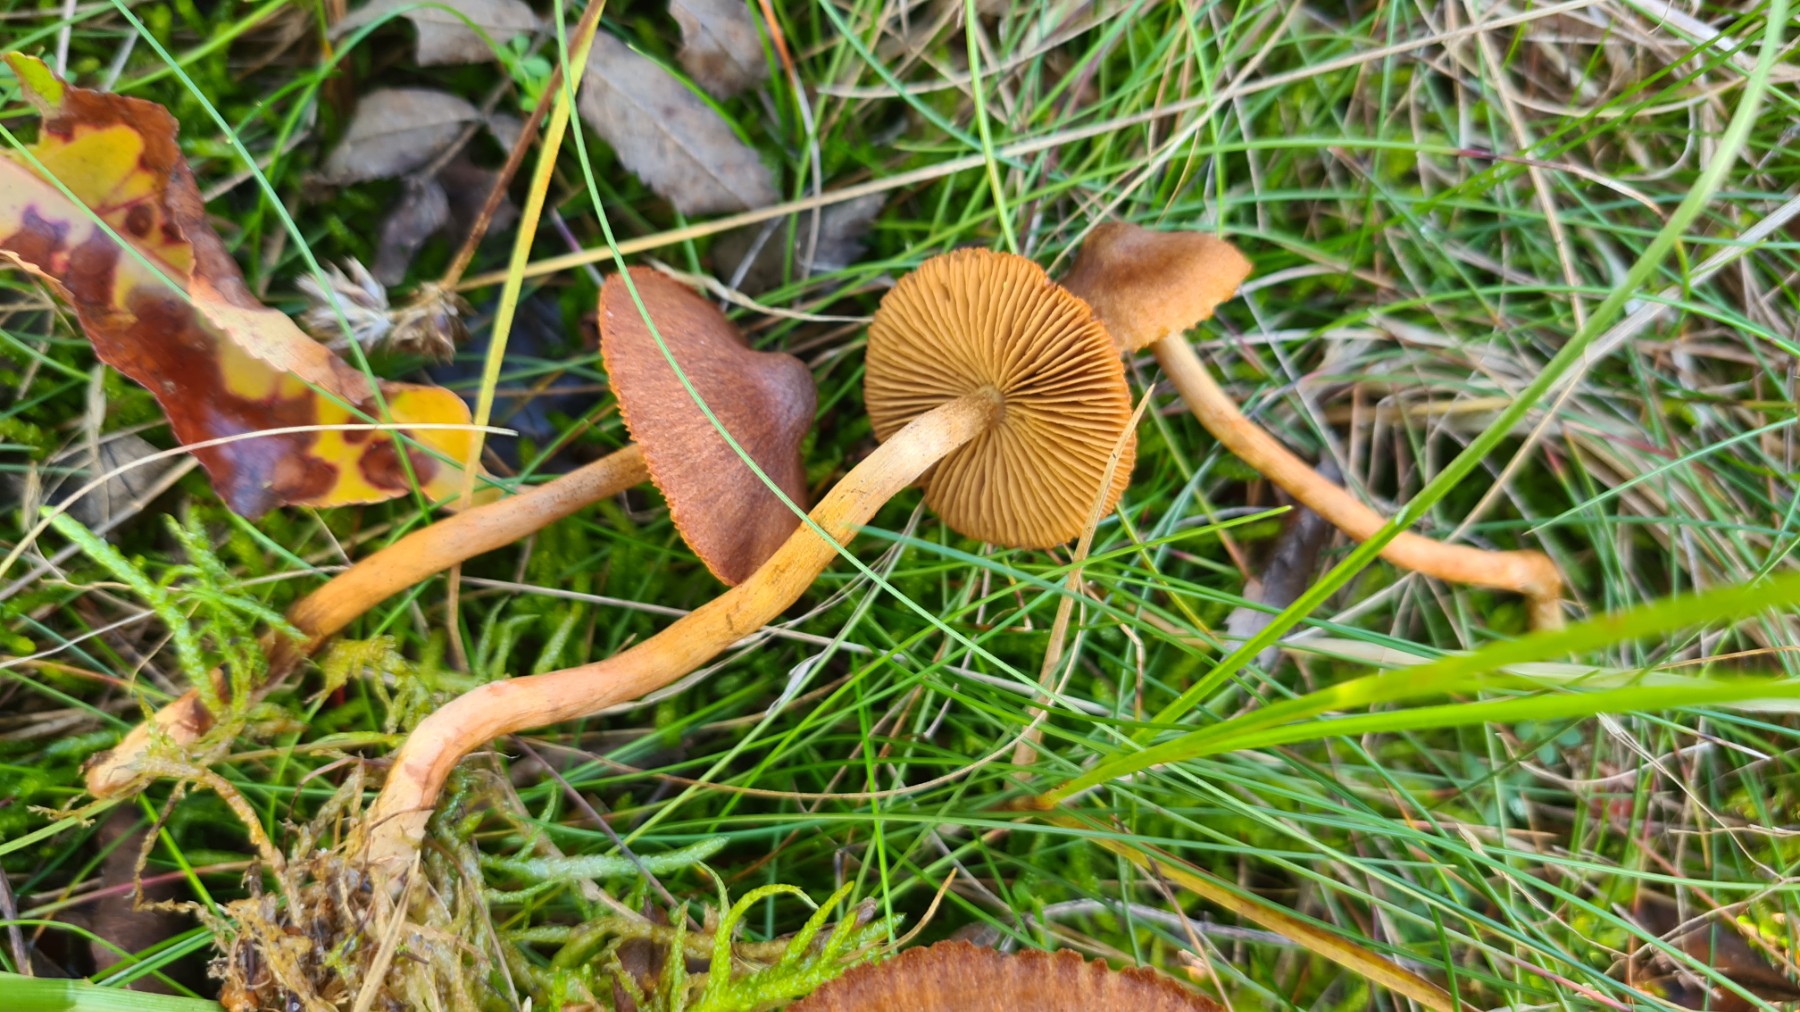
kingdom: Fungi
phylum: Basidiomycota
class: Agaricomycetes
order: Agaricales
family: Cortinariaceae
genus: Cortinarius
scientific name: Cortinarius transatlanticus
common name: transatlantisk slørhat
